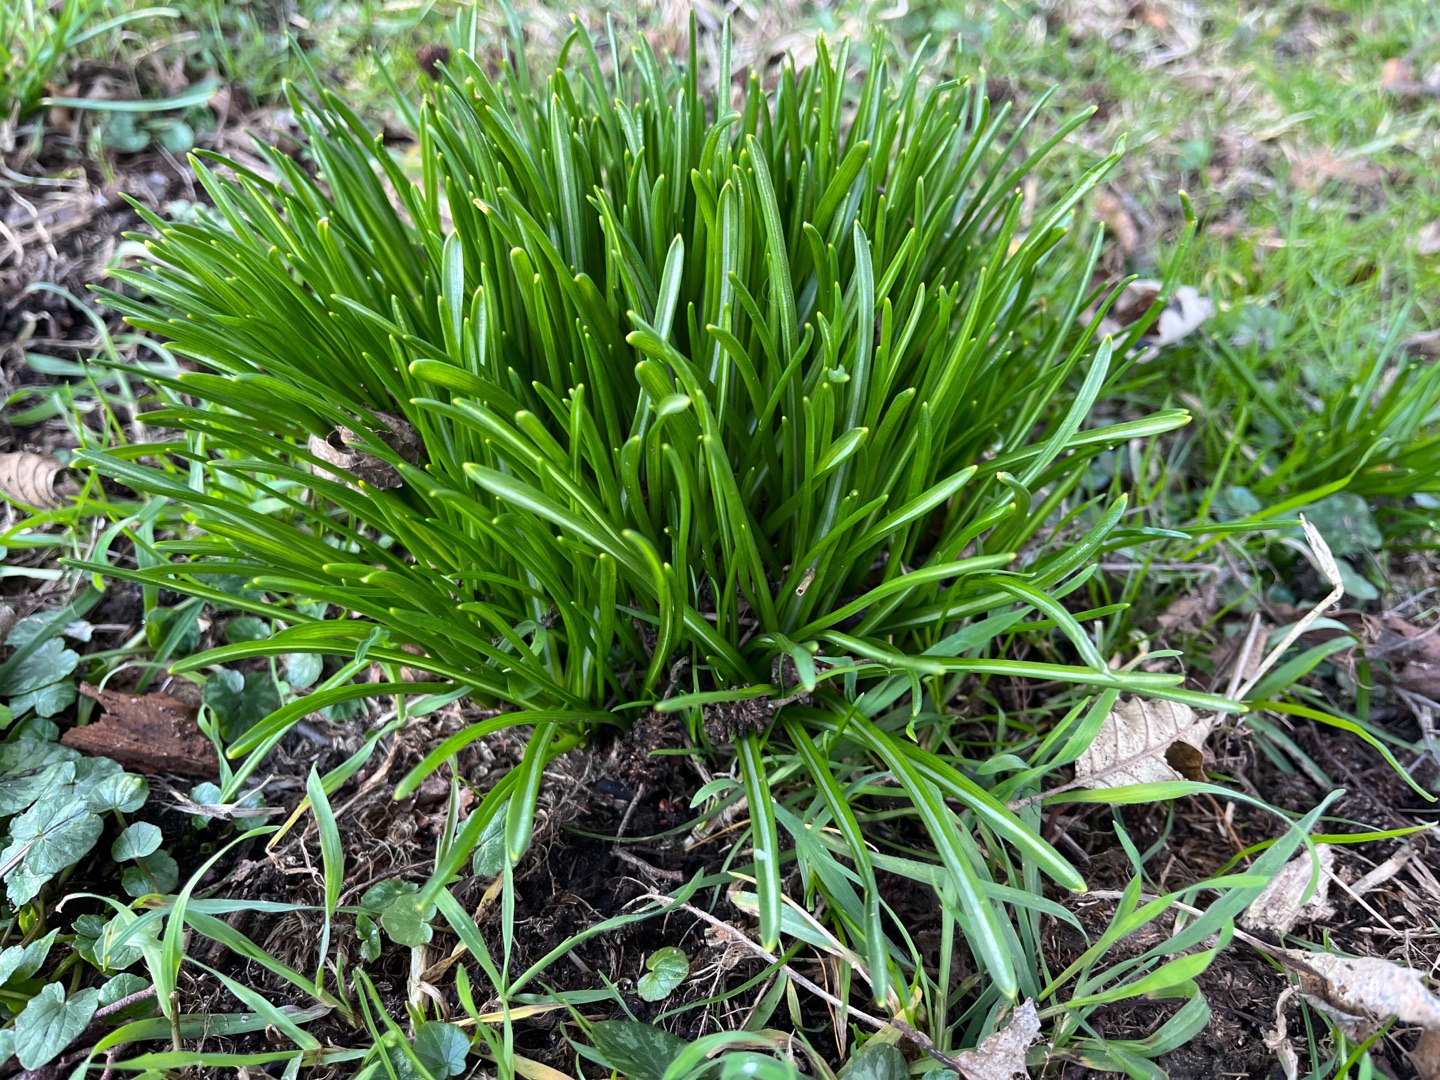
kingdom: Plantae
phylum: Tracheophyta
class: Liliopsida
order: Asparagales
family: Asparagaceae
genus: Ornithogalum
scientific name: Ornithogalum umbellatum
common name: Kost-fuglemælk
